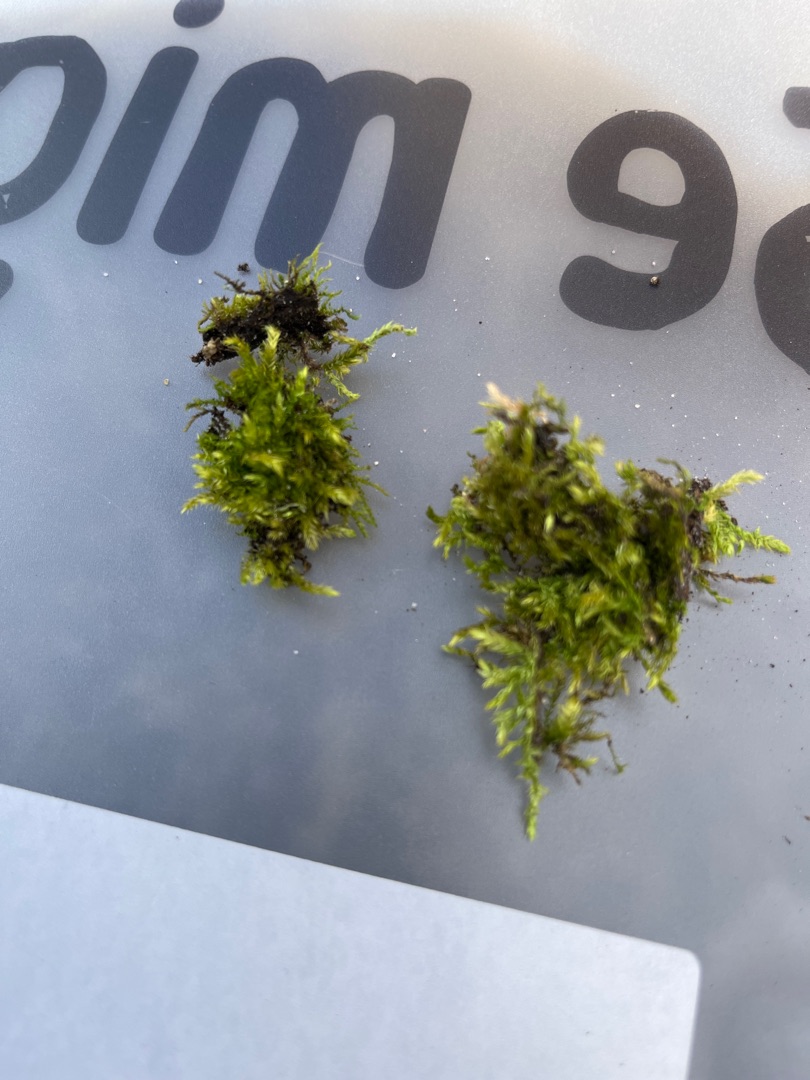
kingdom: Plantae
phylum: Bryophyta
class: Bryopsida
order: Hypnales
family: Brachytheciaceae
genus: Brachythecium
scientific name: Brachythecium rutabulum
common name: Almindelig kortkapsel
